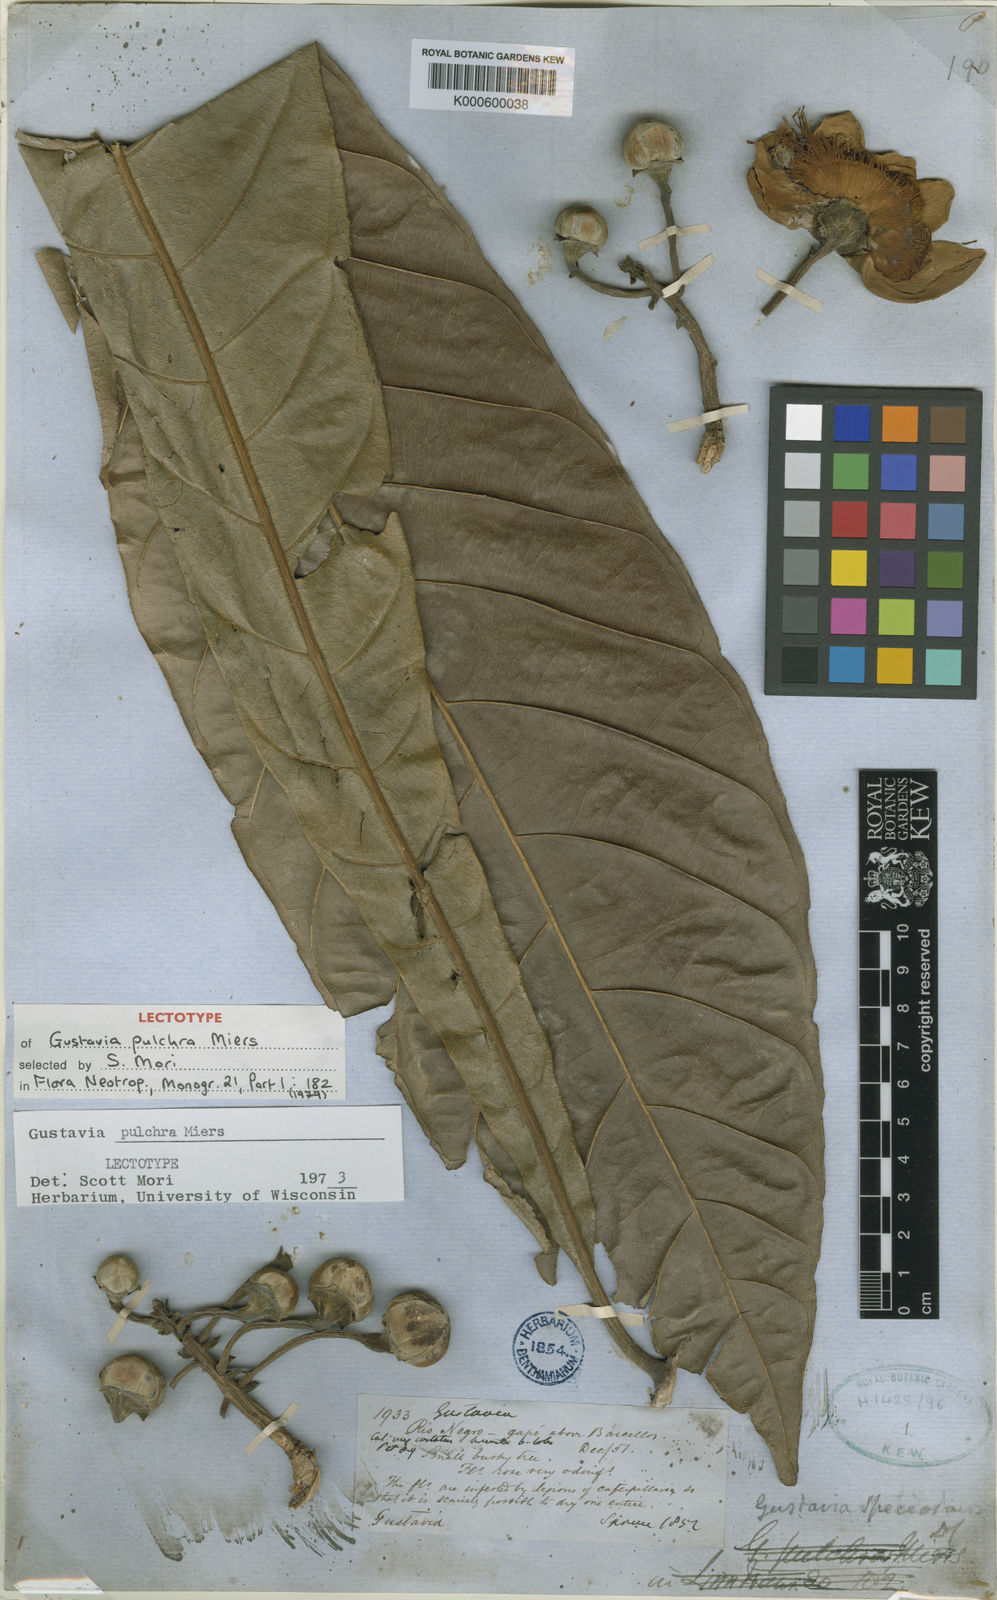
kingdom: Plantae
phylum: Tracheophyta
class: Magnoliopsida
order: Ericales
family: Lecythidaceae
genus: Gustavia
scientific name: Gustavia pulchra
